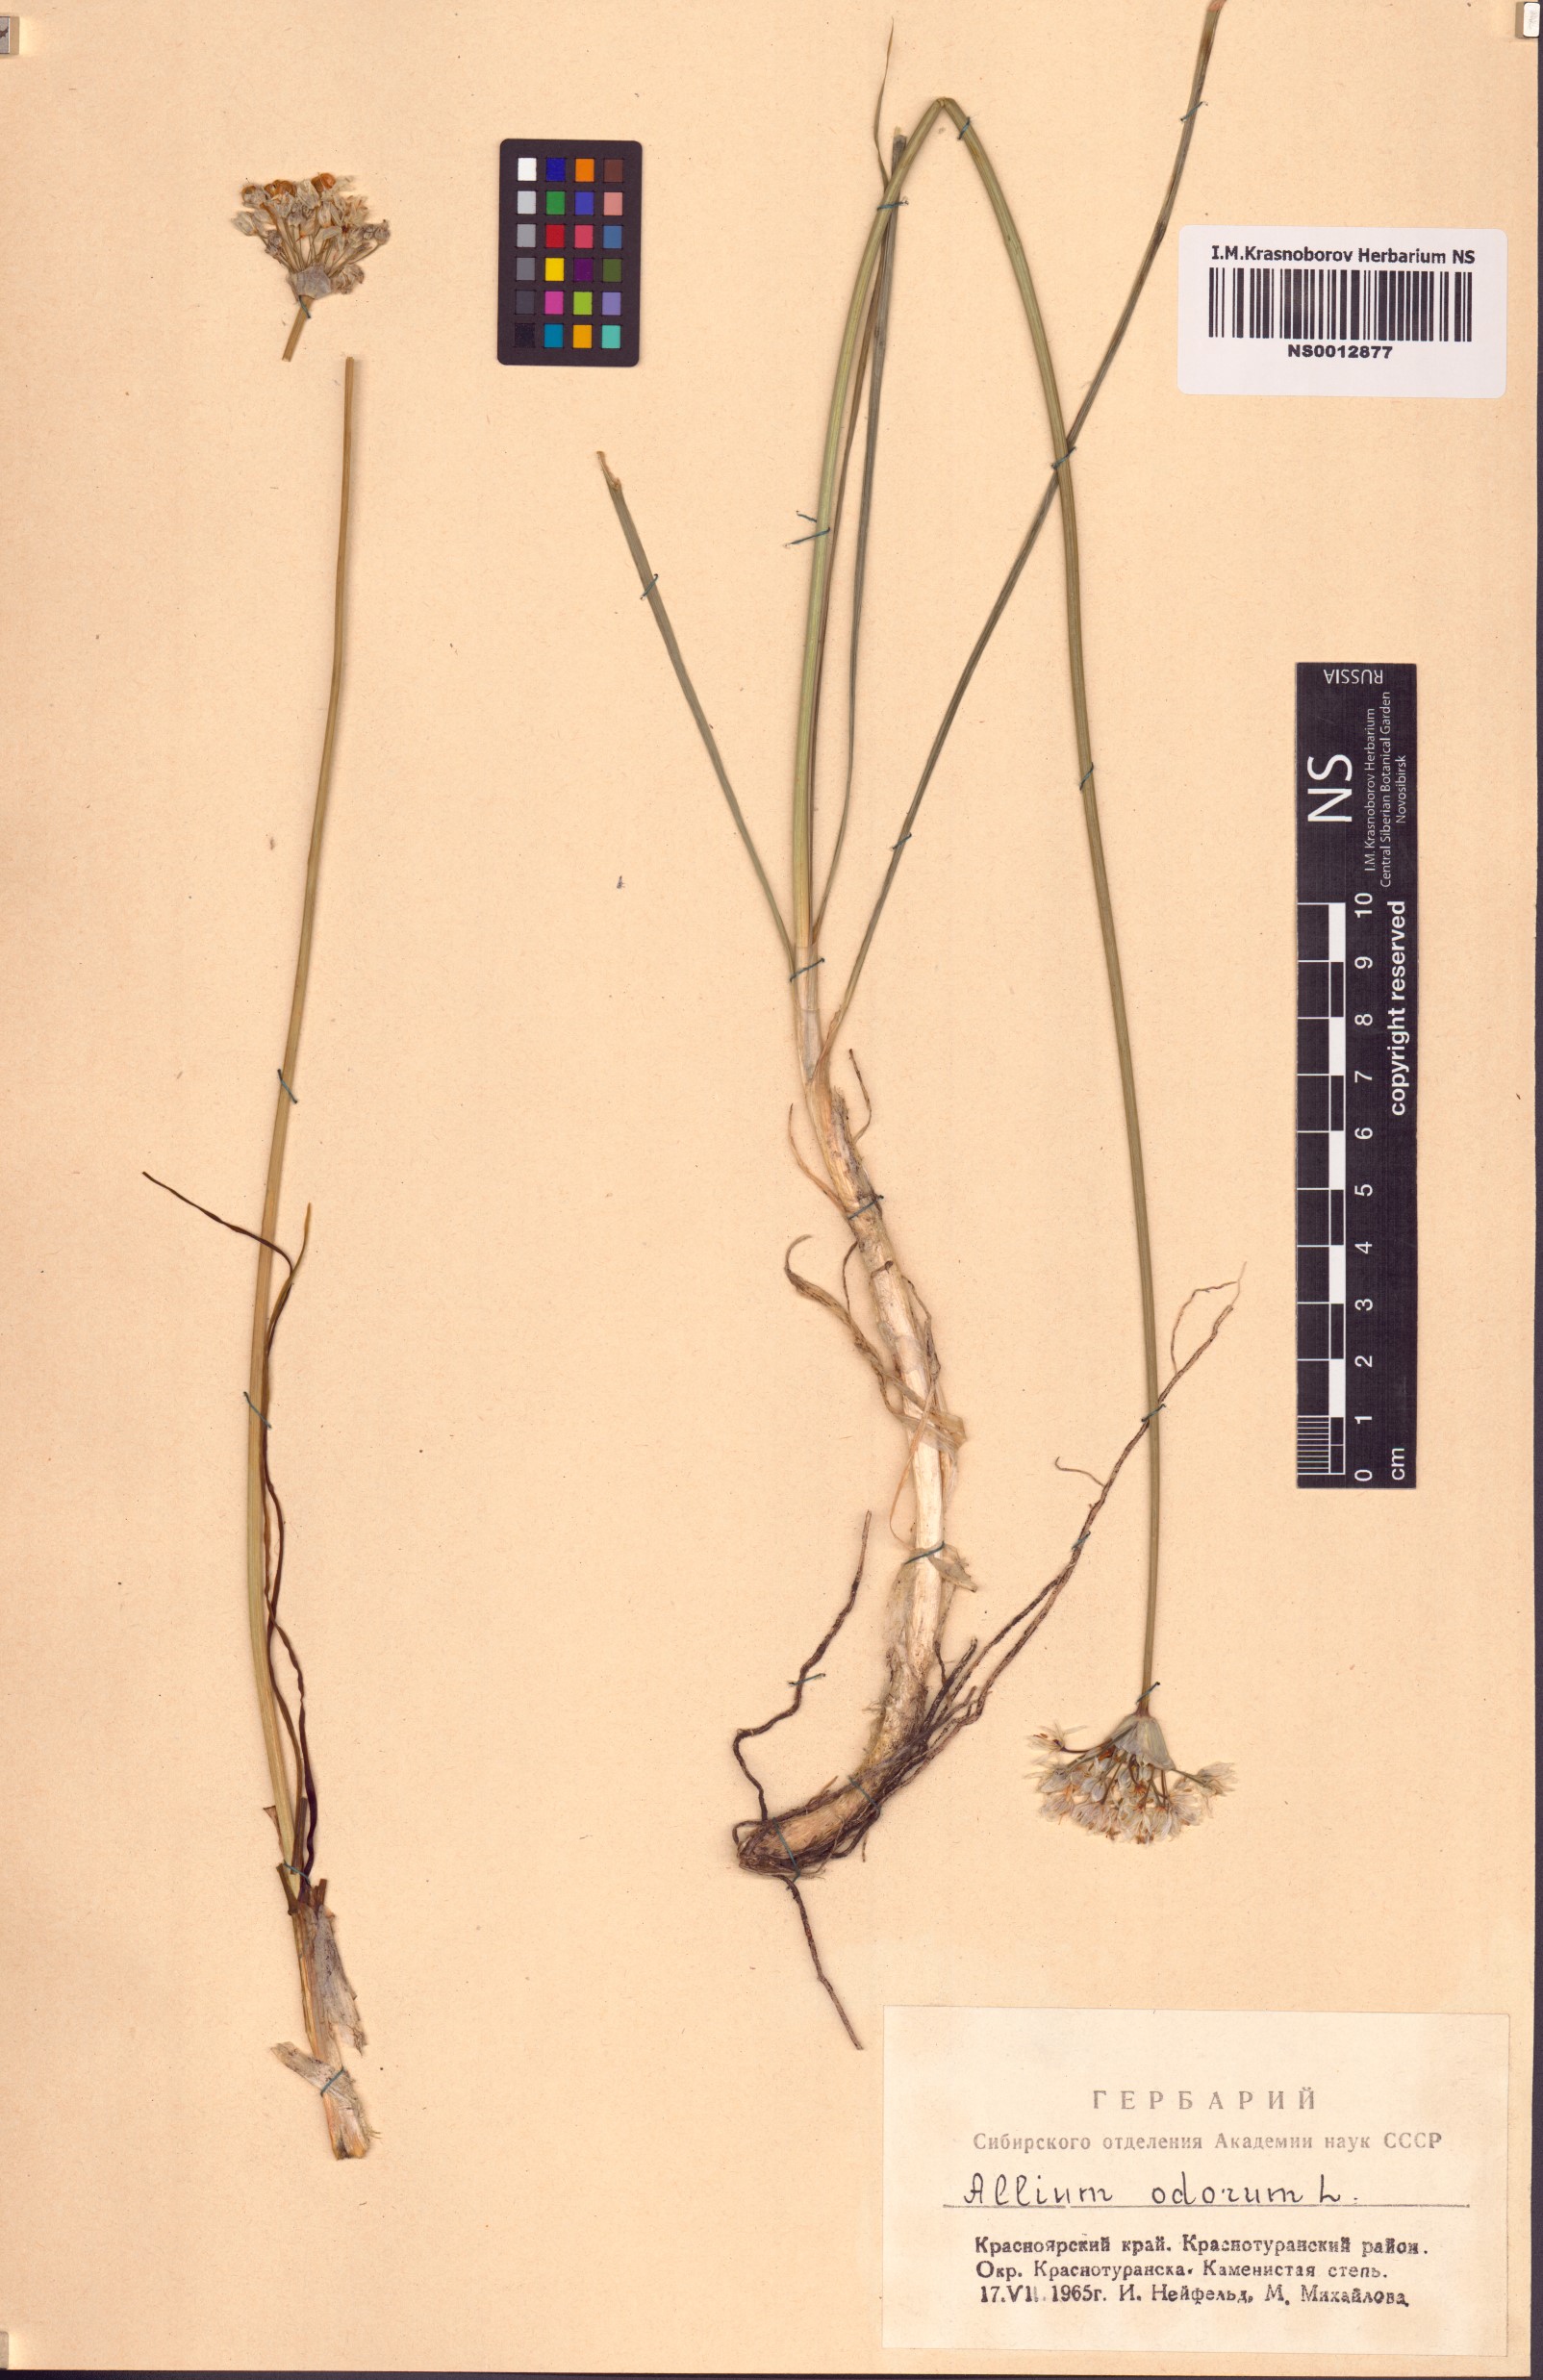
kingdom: Plantae
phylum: Tracheophyta
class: Liliopsida
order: Asparagales
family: Amaryllidaceae
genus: Allium
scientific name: Allium ramosum
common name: Fragrant garlic
